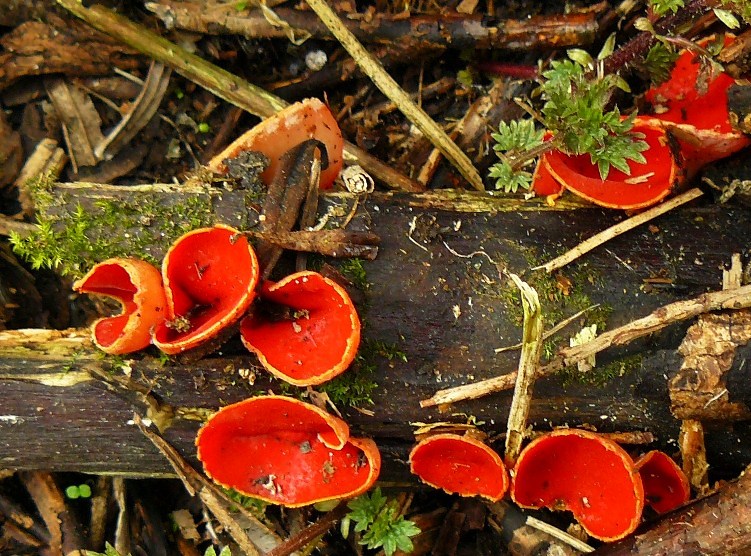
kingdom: Fungi
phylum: Ascomycota
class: Pezizomycetes
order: Pezizales
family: Sarcoscyphaceae
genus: Sarcoscypha
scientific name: Sarcoscypha austriaca
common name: krølhåret pragtbæger
